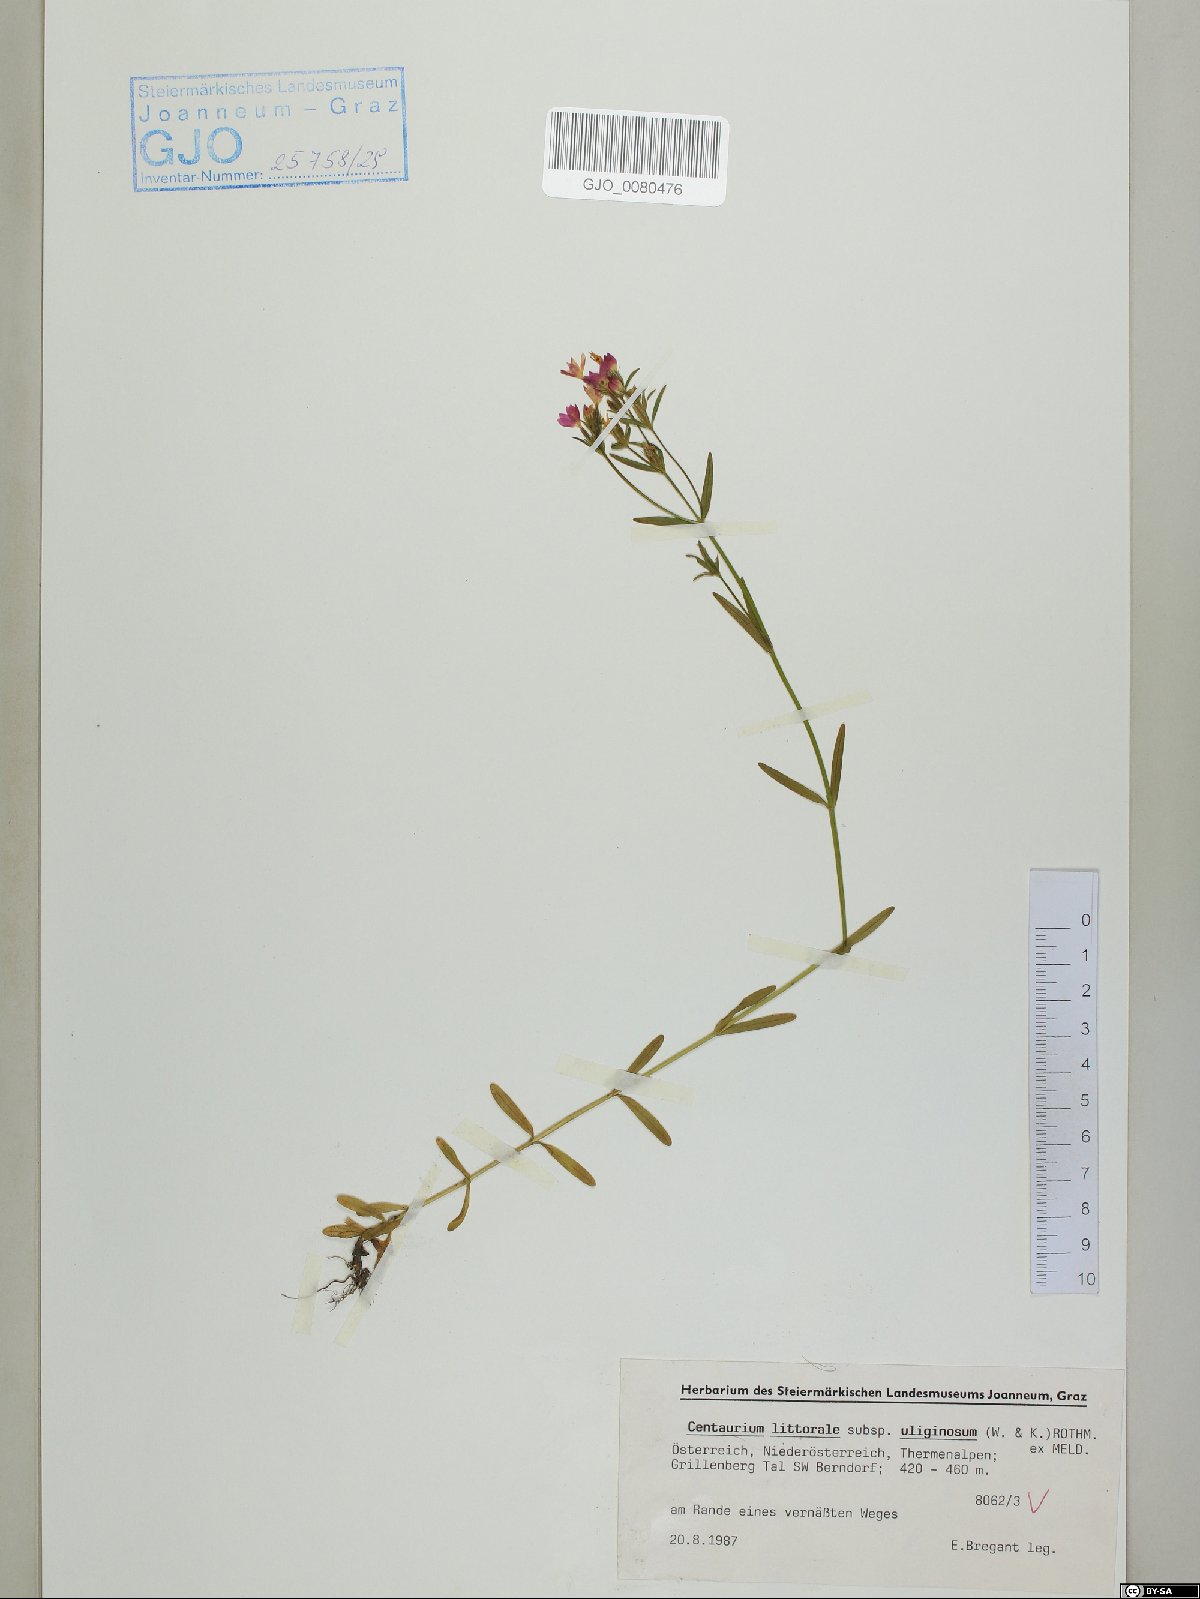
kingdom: Plantae
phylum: Tracheophyta
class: Magnoliopsida
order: Gentianales
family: Gentianaceae
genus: Centaurium
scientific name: Centaurium littorale
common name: Seaside centaury
